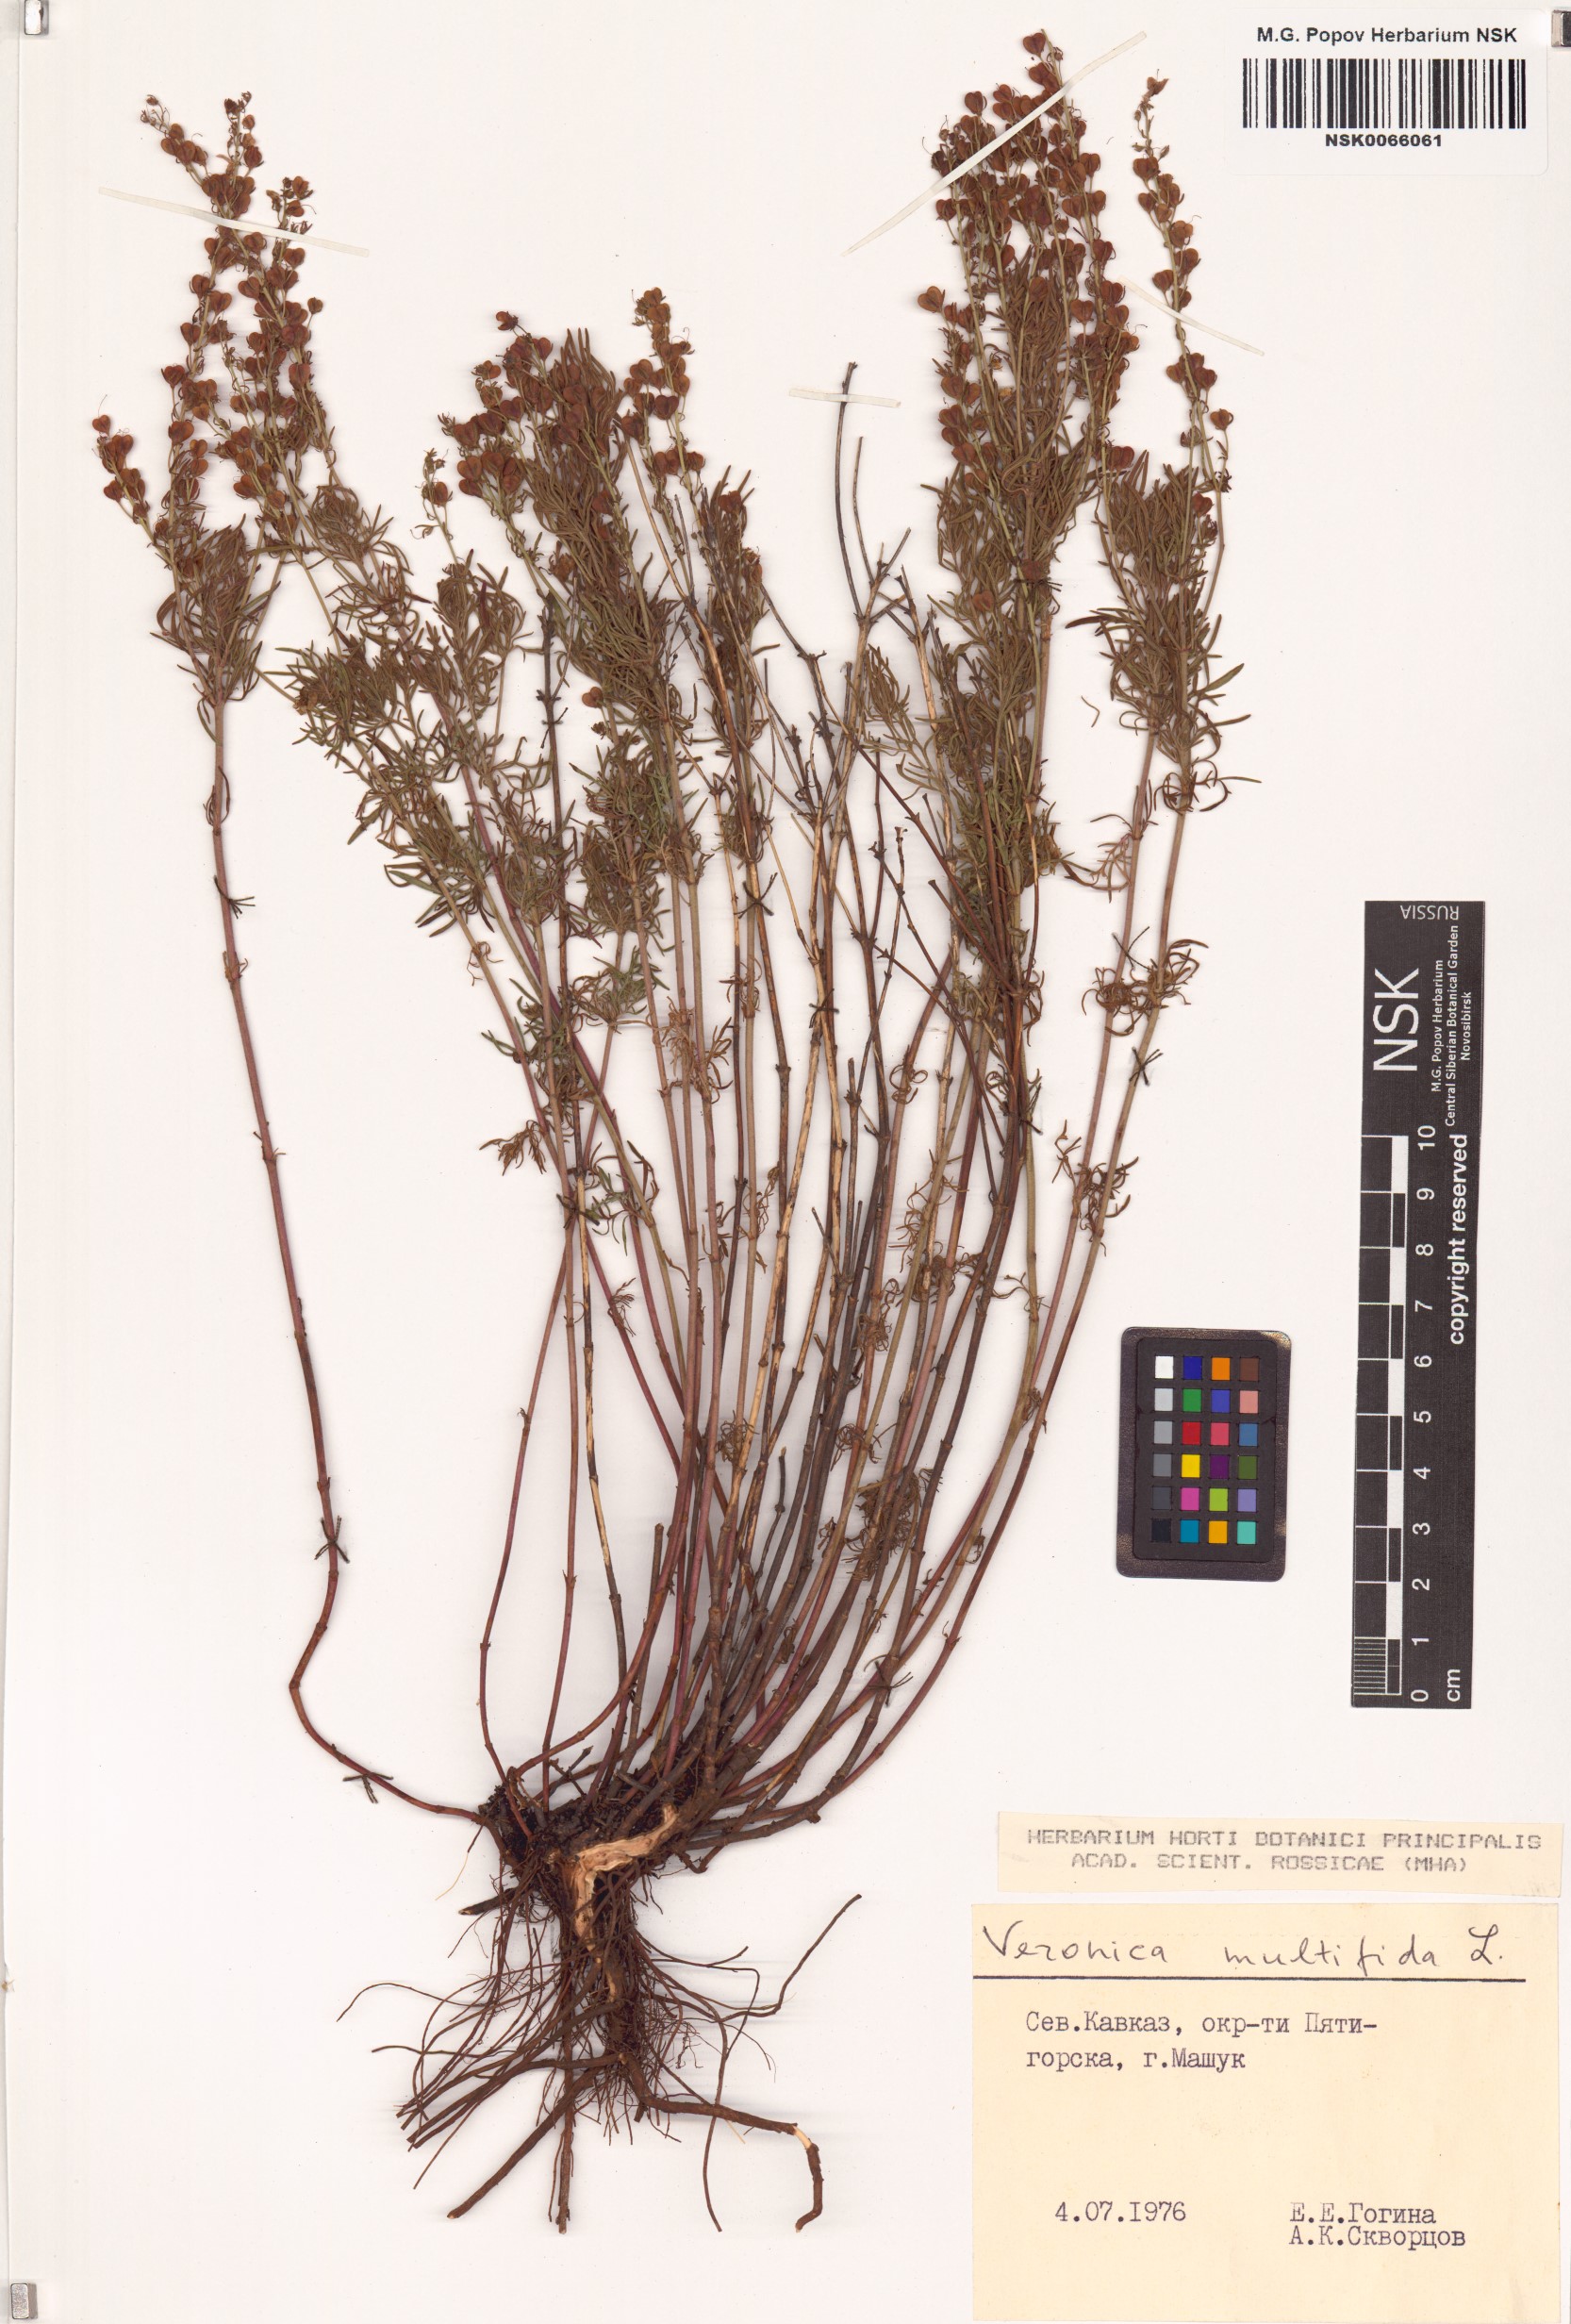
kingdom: Plantae
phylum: Tracheophyta
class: Magnoliopsida
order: Lamiales
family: Plantaginaceae
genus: Veronica
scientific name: Veronica multifida
